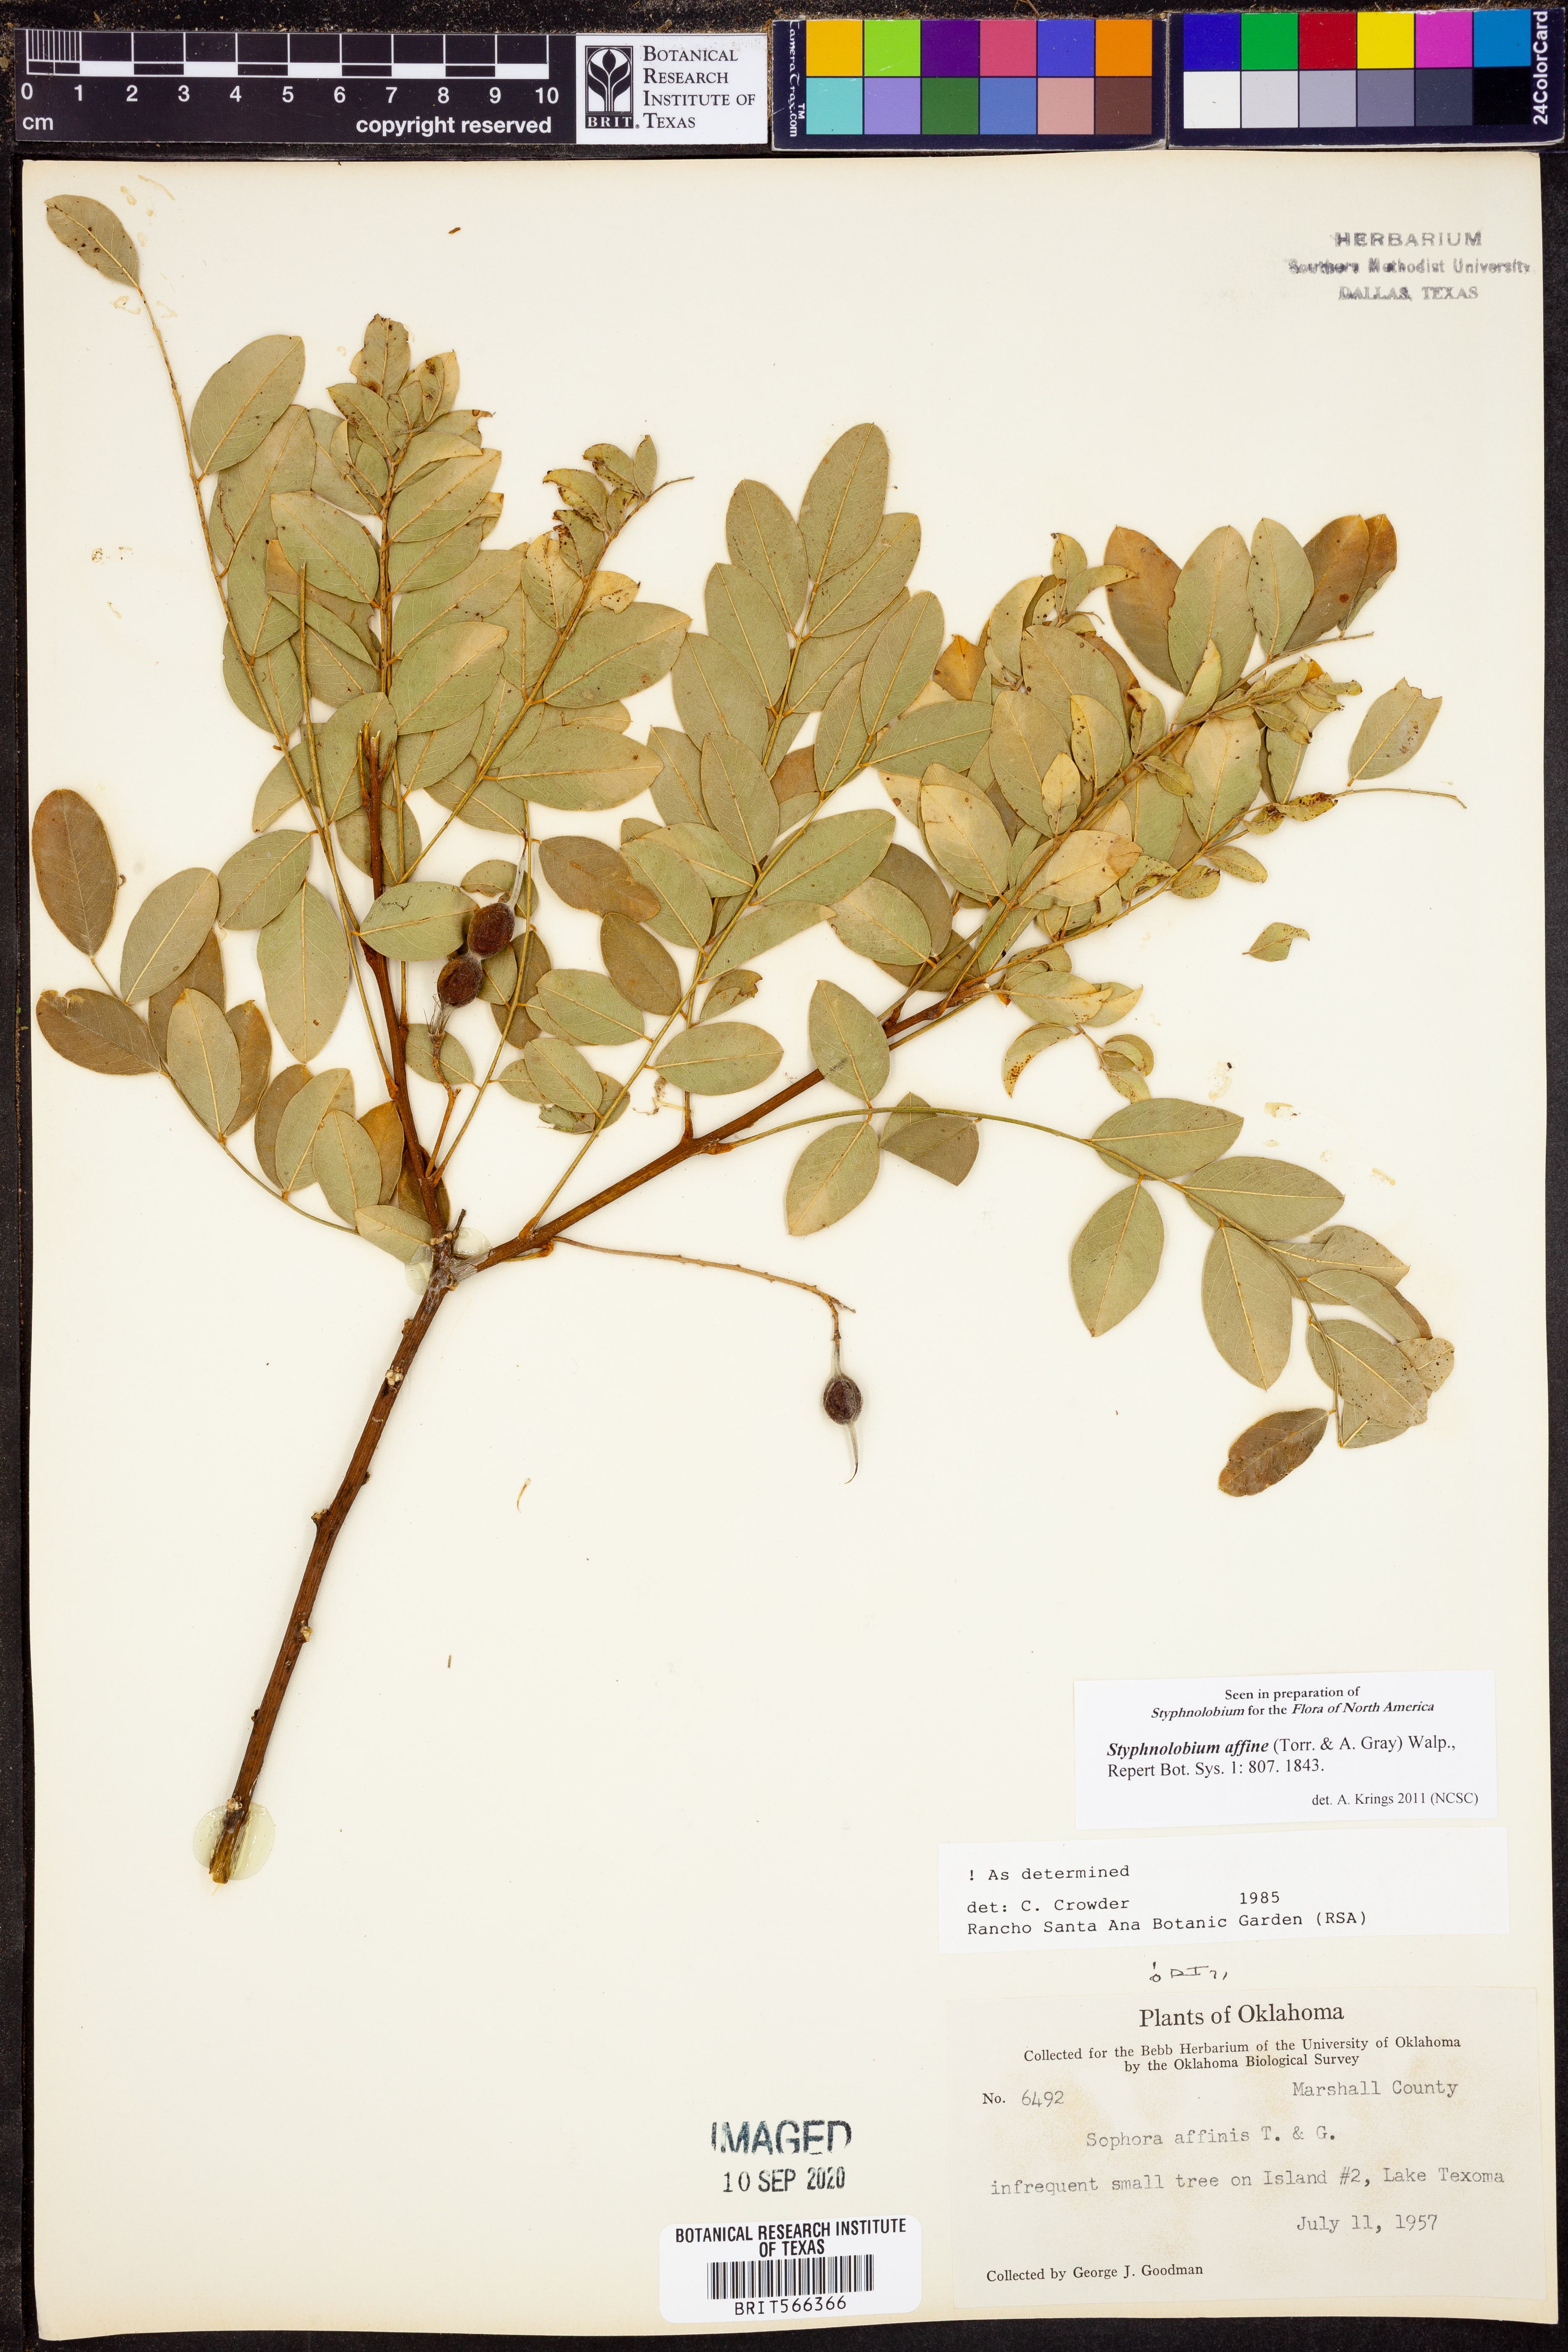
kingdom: Plantae
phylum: Tracheophyta
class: Magnoliopsida
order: Fabales
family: Fabaceae
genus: Styphnolobium
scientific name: Styphnolobium affine
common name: Texas sophora
